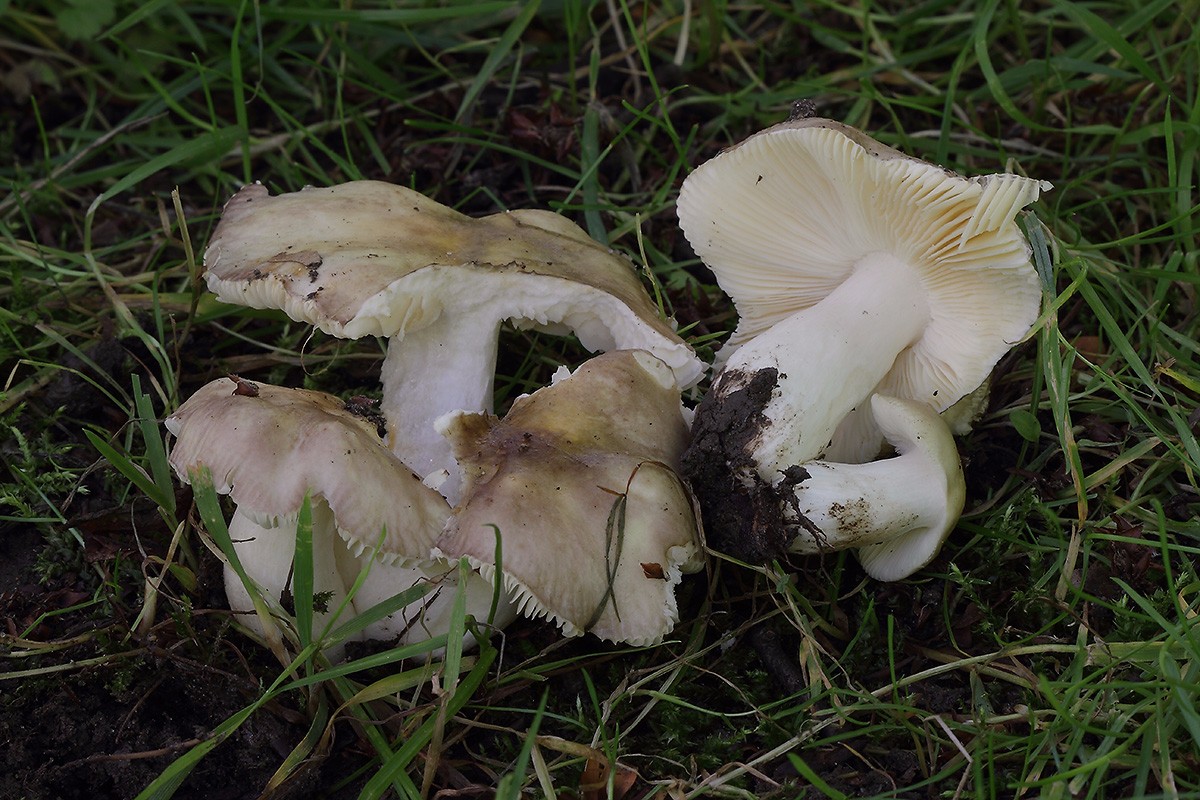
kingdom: Fungi
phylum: Basidiomycota
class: Agaricomycetes
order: Russulales
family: Russulaceae
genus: Russula
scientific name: Russula carpini
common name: avnbøg-skørhat
